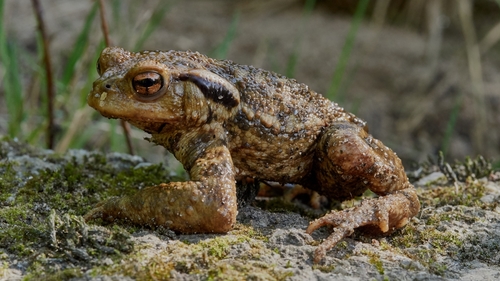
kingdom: Animalia
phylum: Chordata
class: Amphibia
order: Anura
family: Bufonidae
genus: Bufo
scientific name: Bufo spinosus
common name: Western common toad
